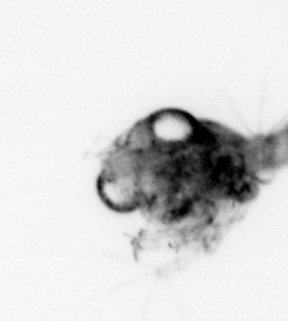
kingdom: Animalia
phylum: Arthropoda
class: Malacostraca
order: Decapoda
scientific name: Decapoda
